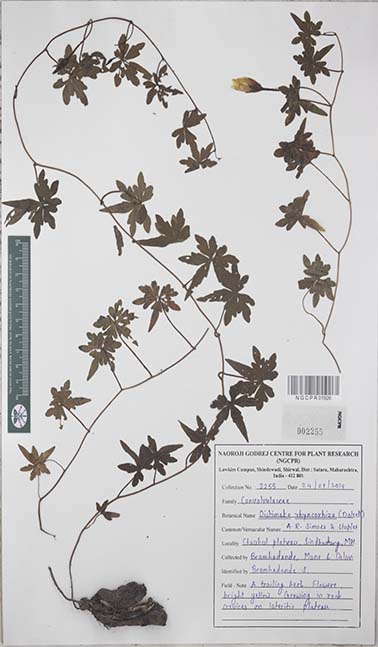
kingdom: Plantae
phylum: Tracheophyta
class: Magnoliopsida
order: Solanales
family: Convolvulaceae
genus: Distimake
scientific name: Distimake rhynchorrhizus
